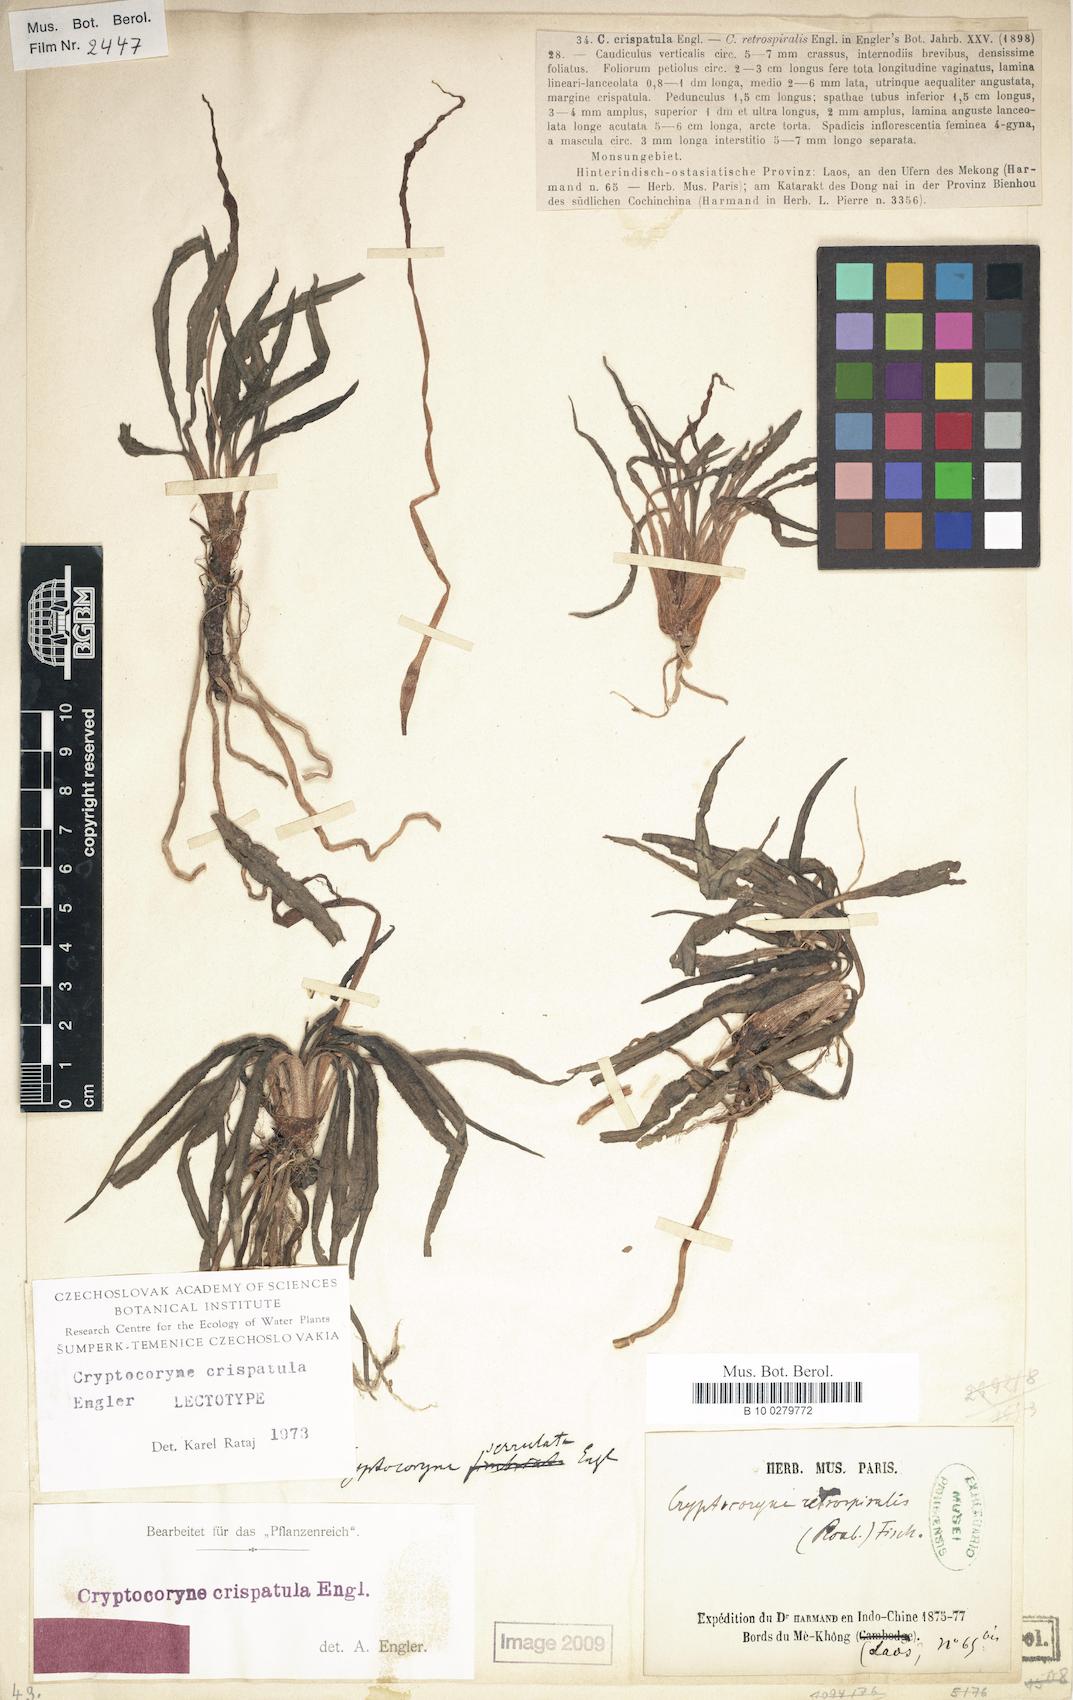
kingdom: Plantae
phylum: Tracheophyta
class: Liliopsida
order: Alismatales
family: Araceae
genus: Cryptocoryne
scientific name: Cryptocoryne crispatula
